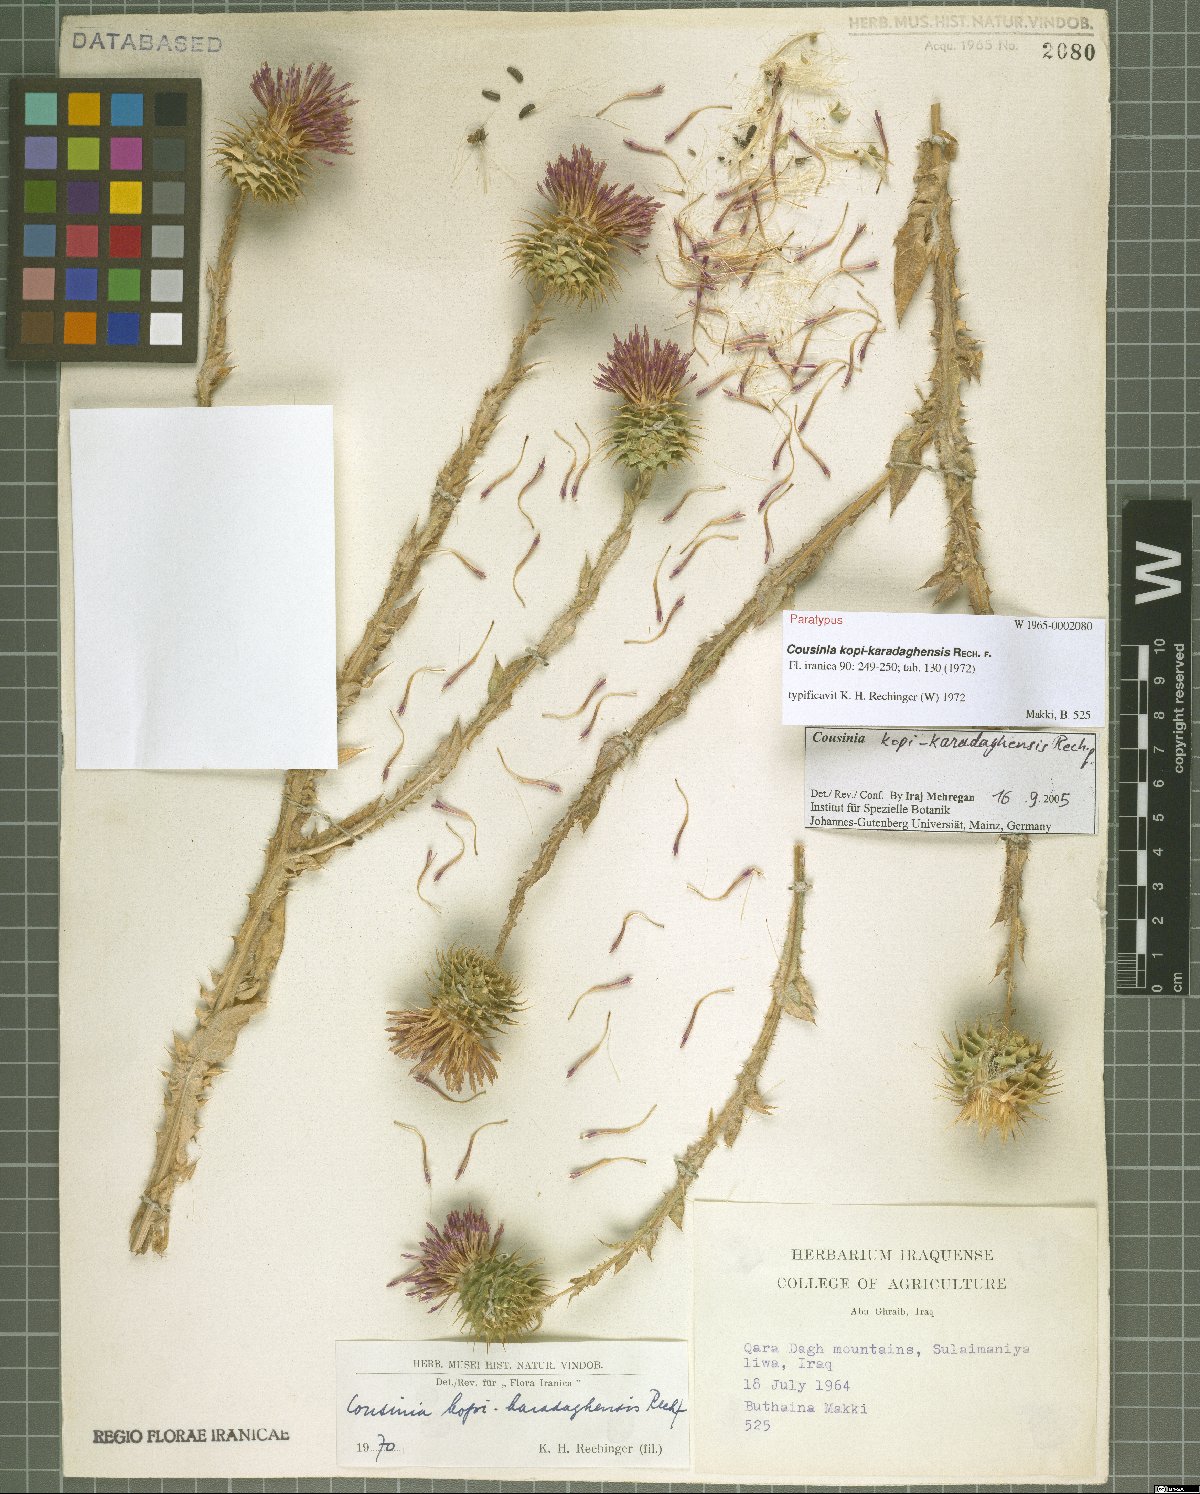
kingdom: Plantae
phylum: Tracheophyta
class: Magnoliopsida
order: Asterales
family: Asteraceae
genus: Cousinia
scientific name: Cousinia kopi-karadaghensis
